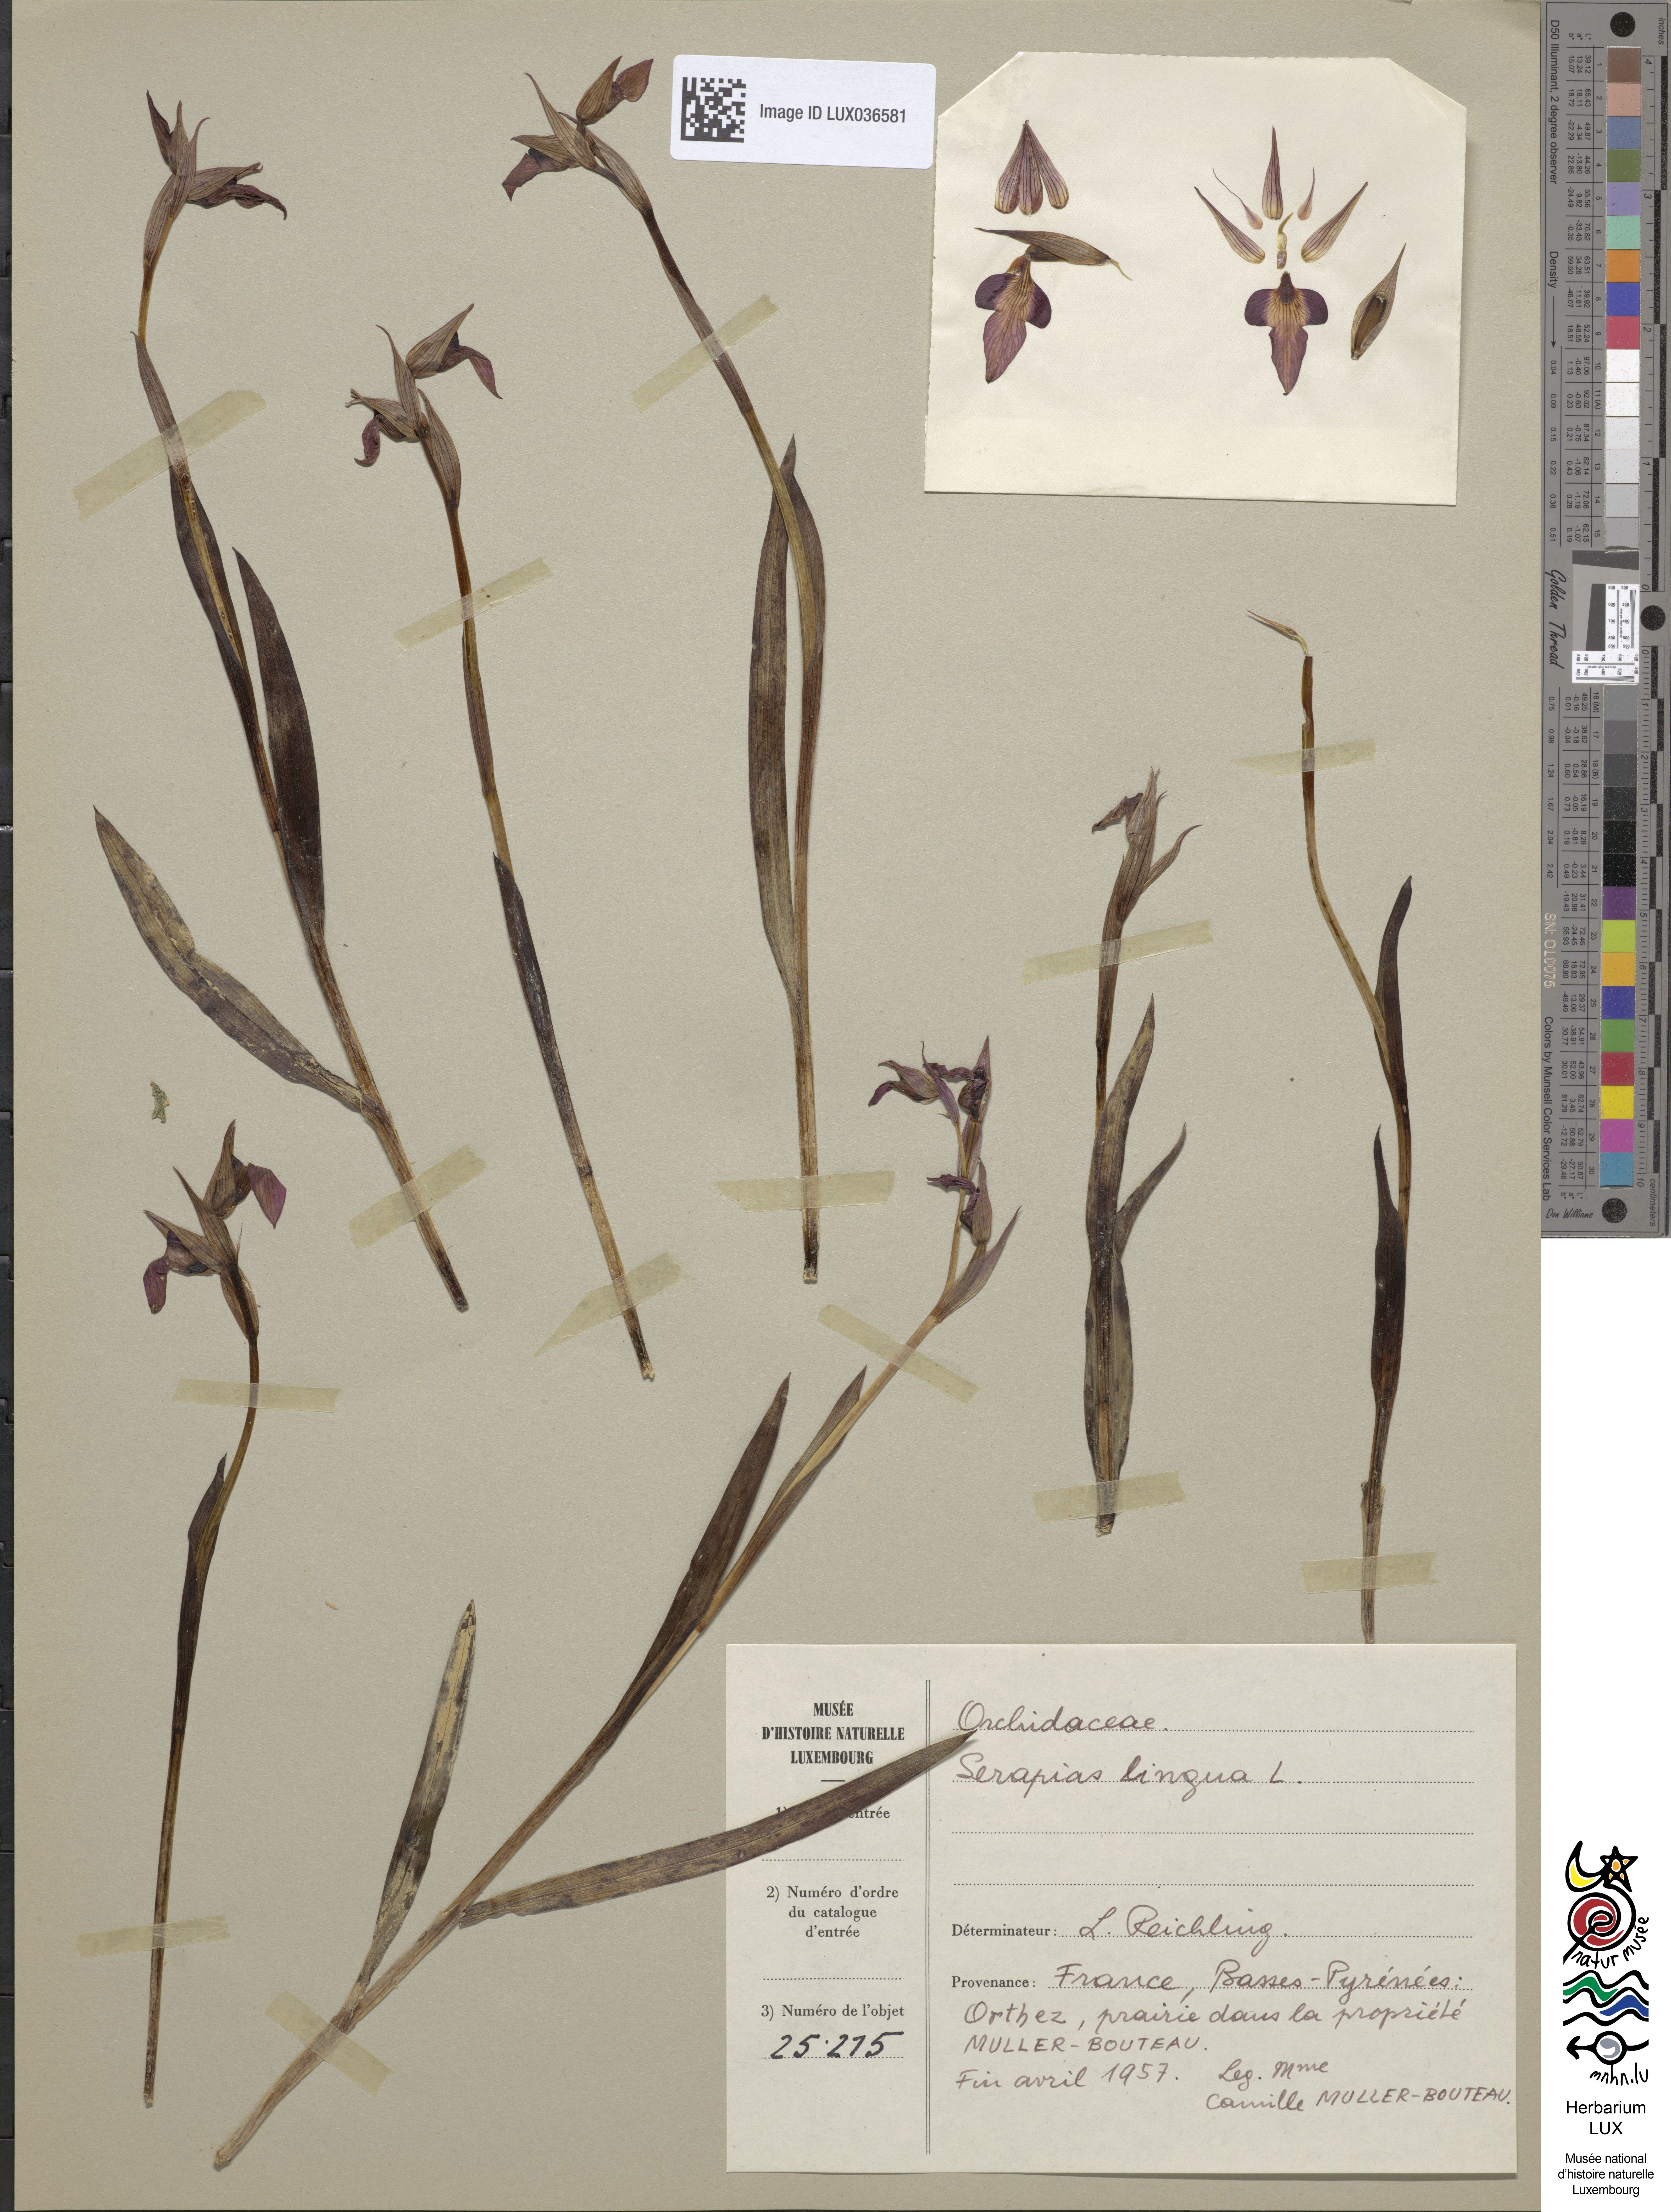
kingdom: Plantae
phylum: Tracheophyta
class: Liliopsida
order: Asparagales
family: Orchidaceae
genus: Serapias
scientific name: Serapias lingua
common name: Tongue-orchid
